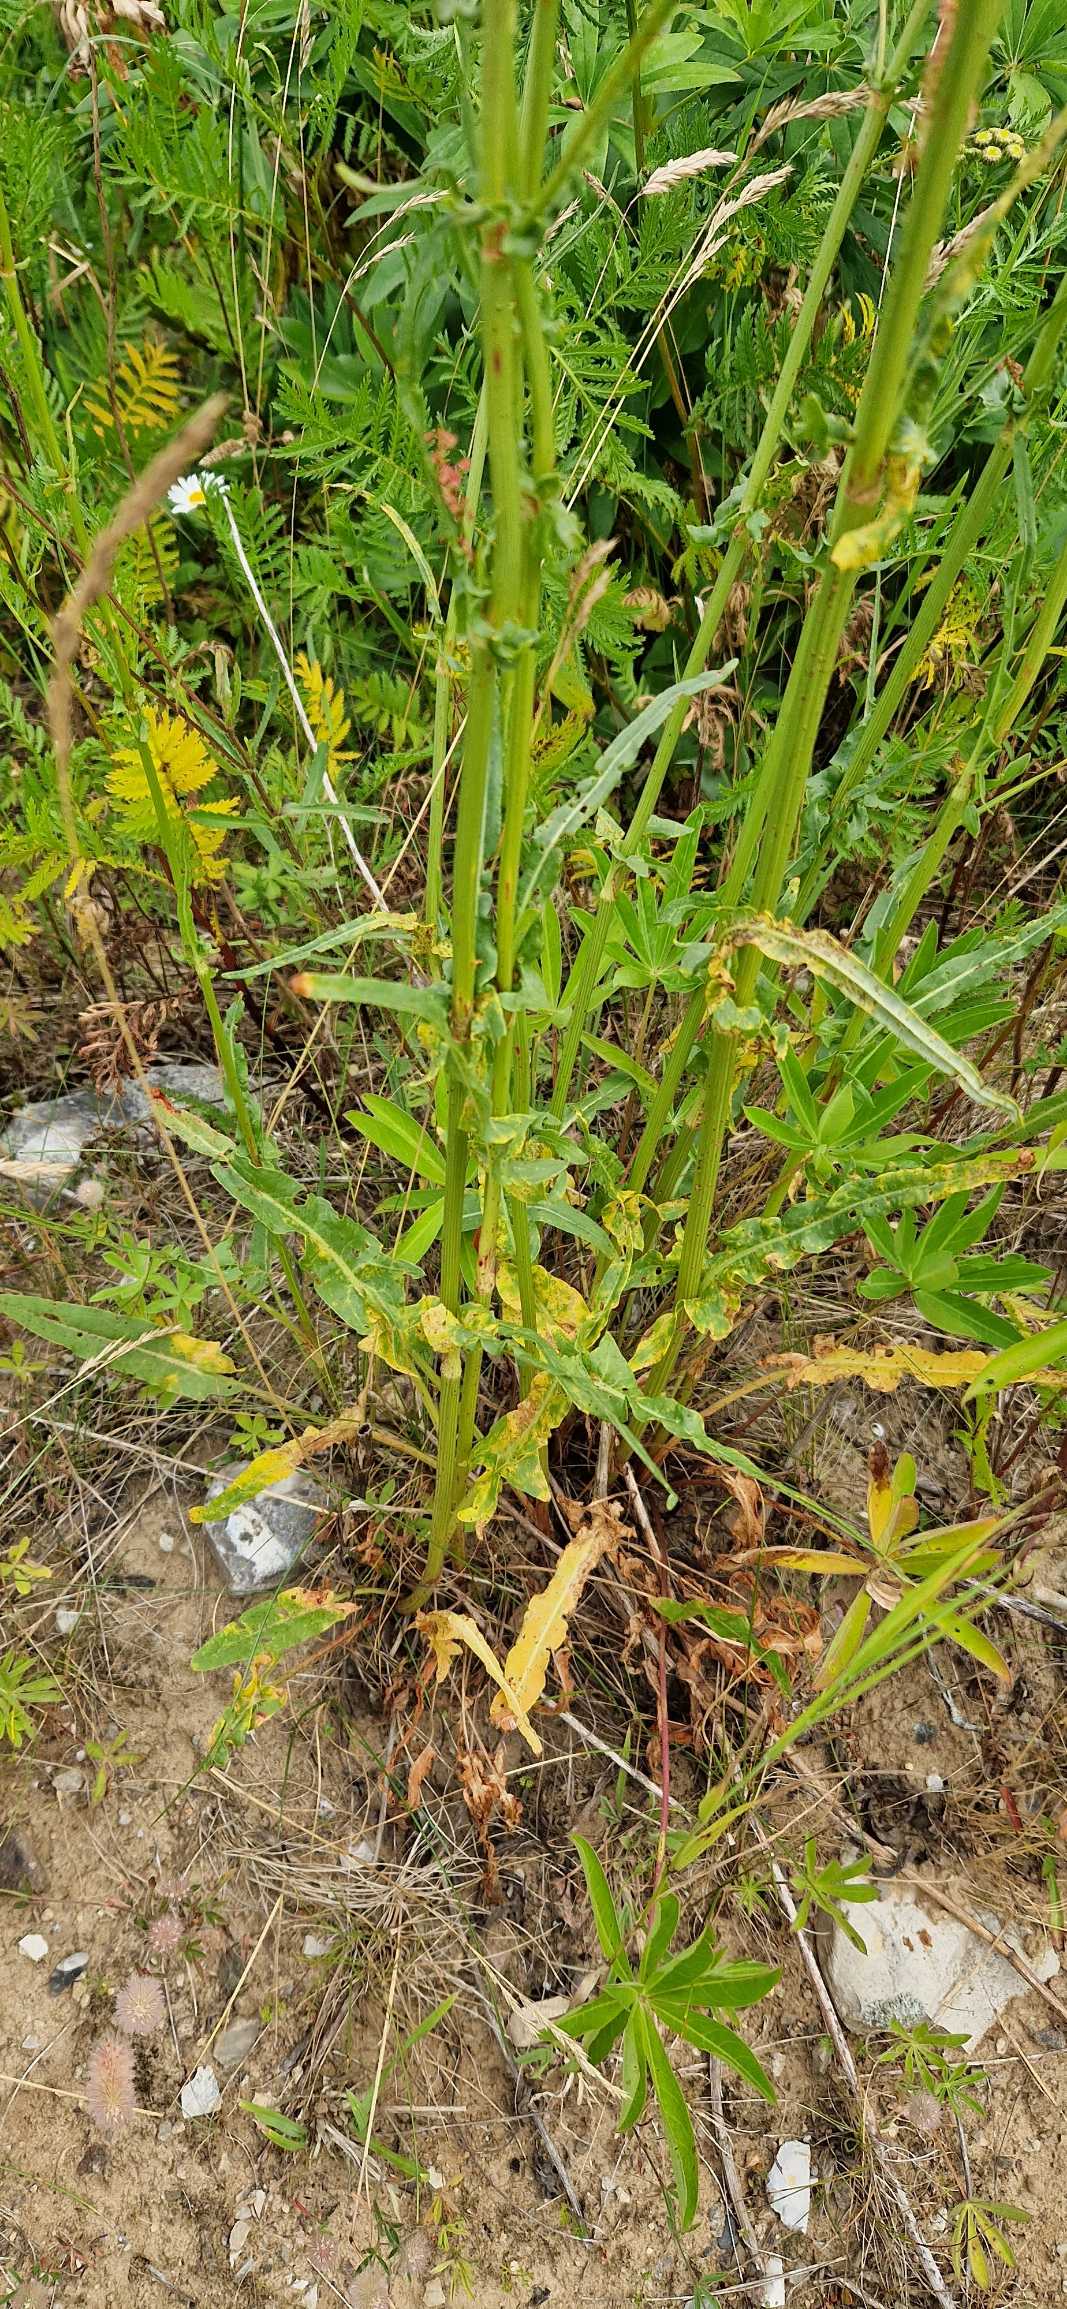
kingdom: Plantae
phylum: Tracheophyta
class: Magnoliopsida
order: Caryophyllales
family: Polygonaceae
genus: Rumex
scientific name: Rumex thyrsiflorus
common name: Dusk-syre
